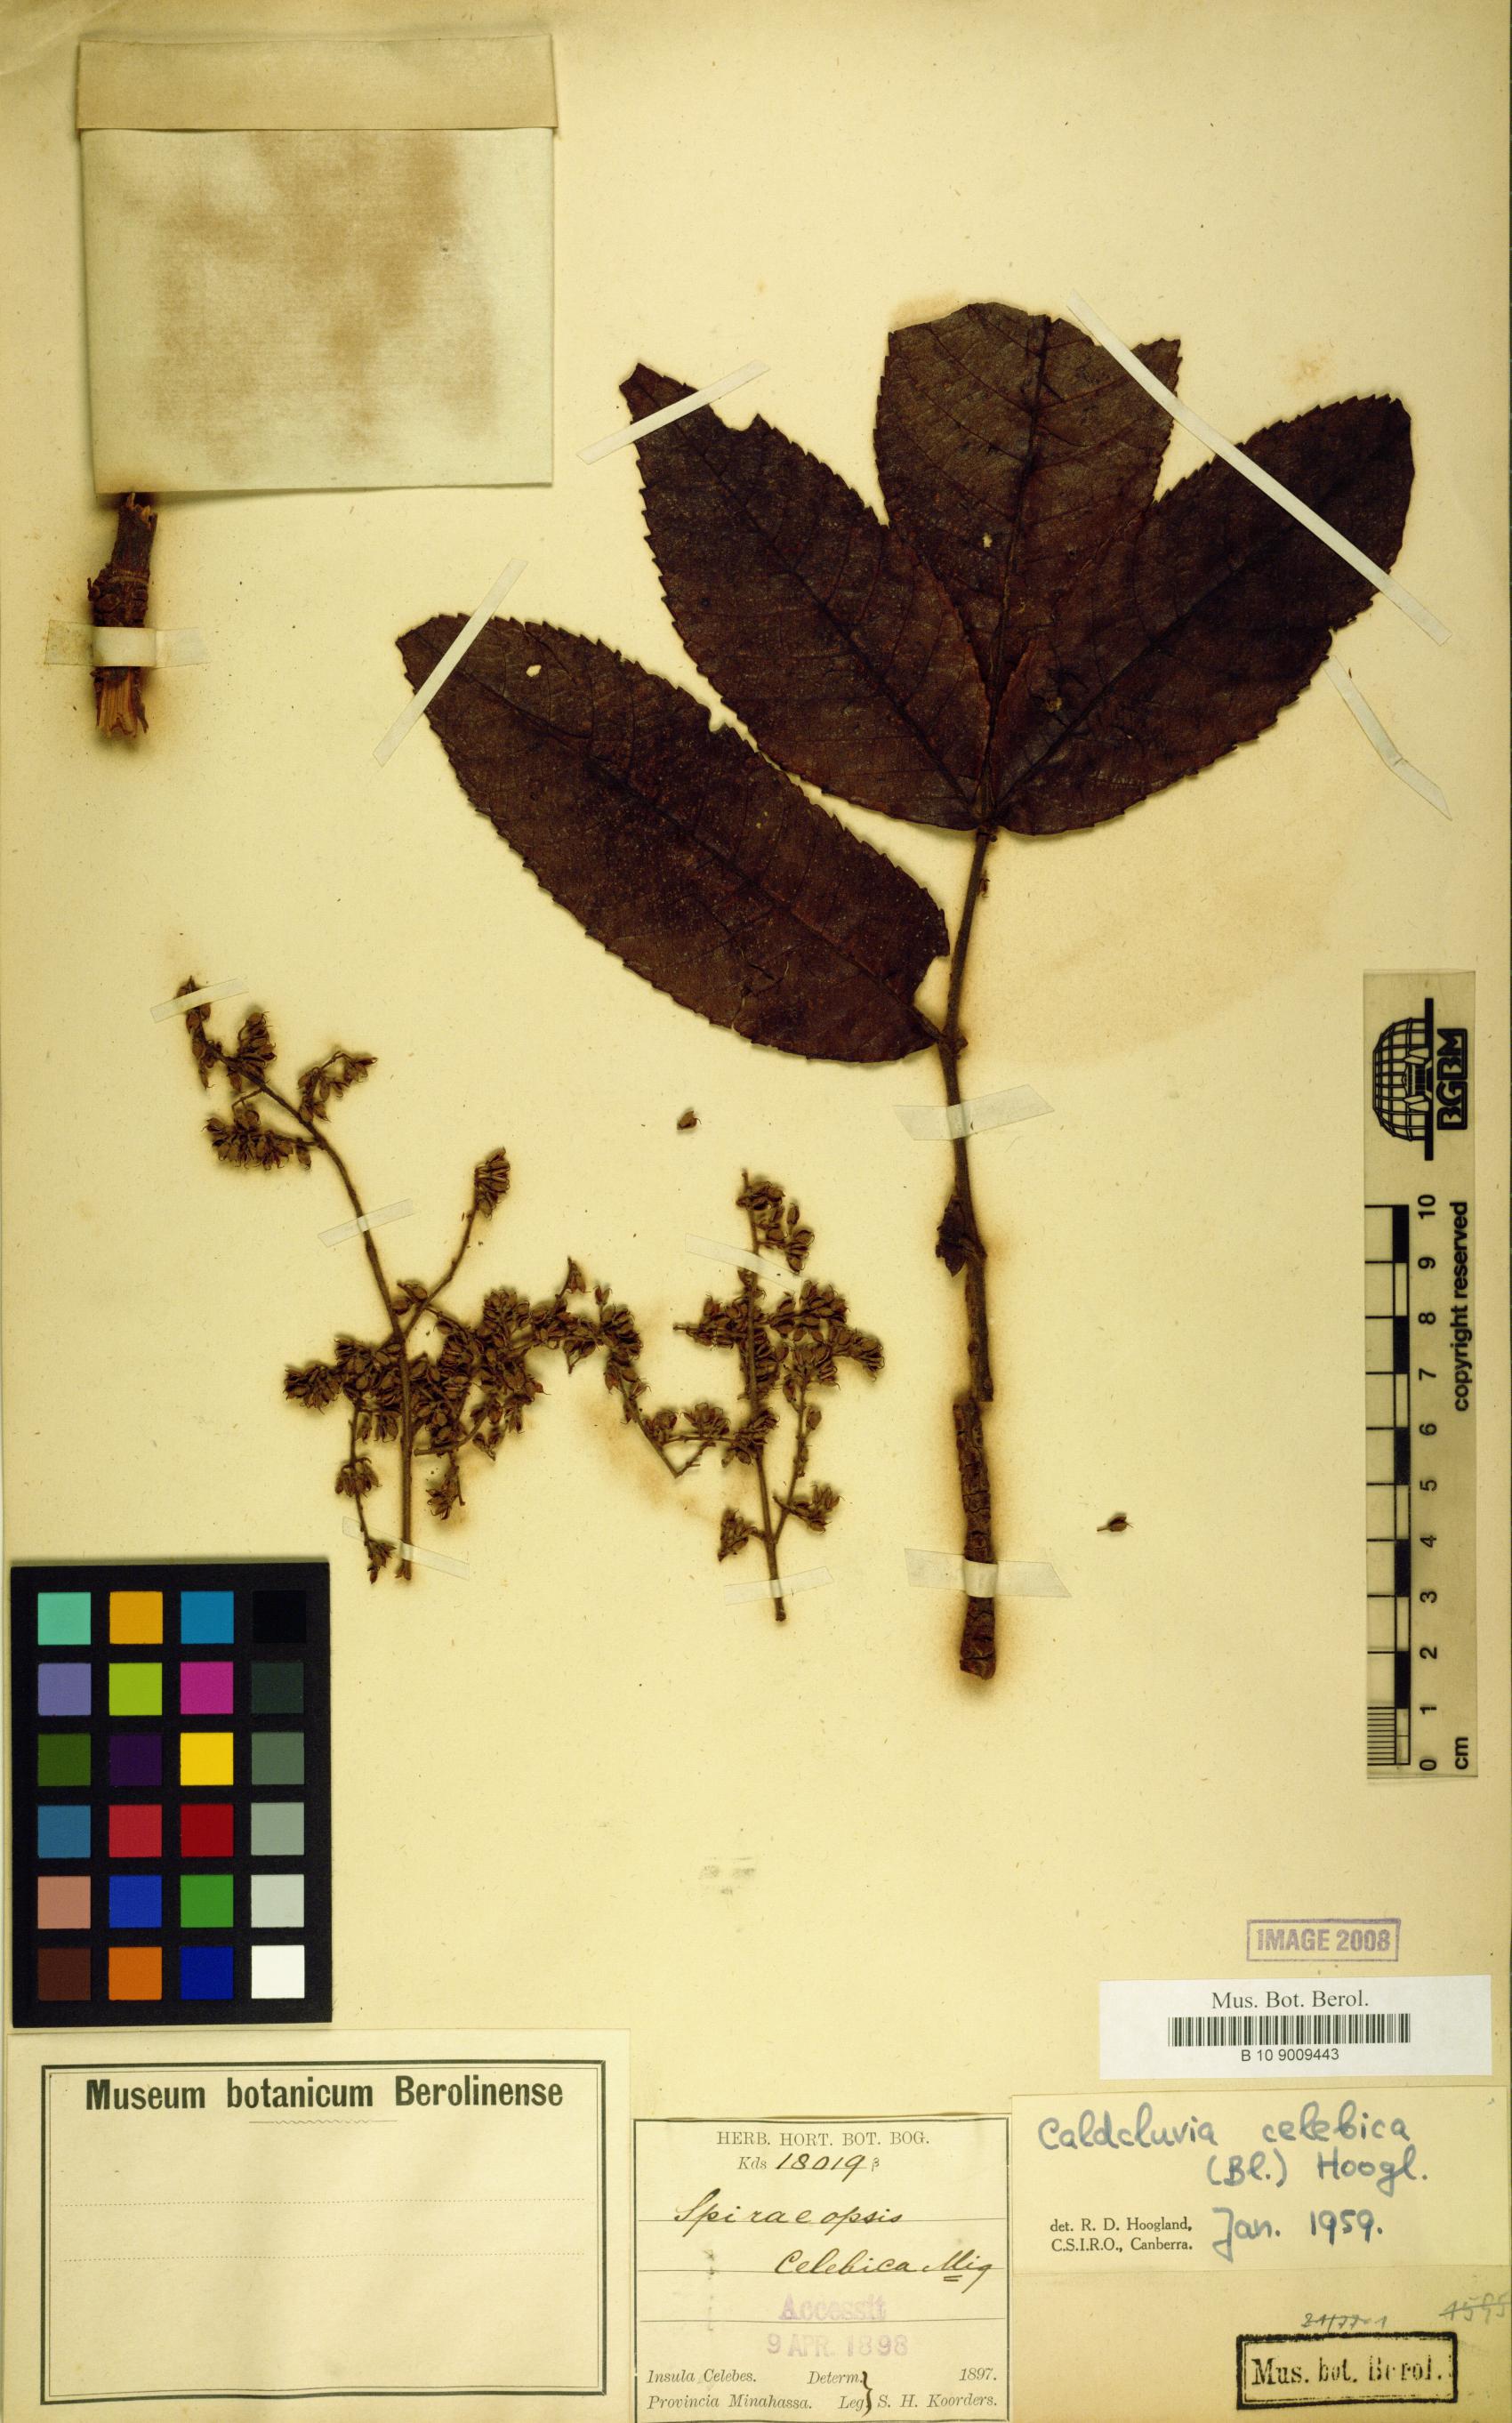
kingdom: Plantae
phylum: Tracheophyta
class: Magnoliopsida
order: Oxalidales
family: Cunoniaceae
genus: Ackama
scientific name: Ackama celebica
